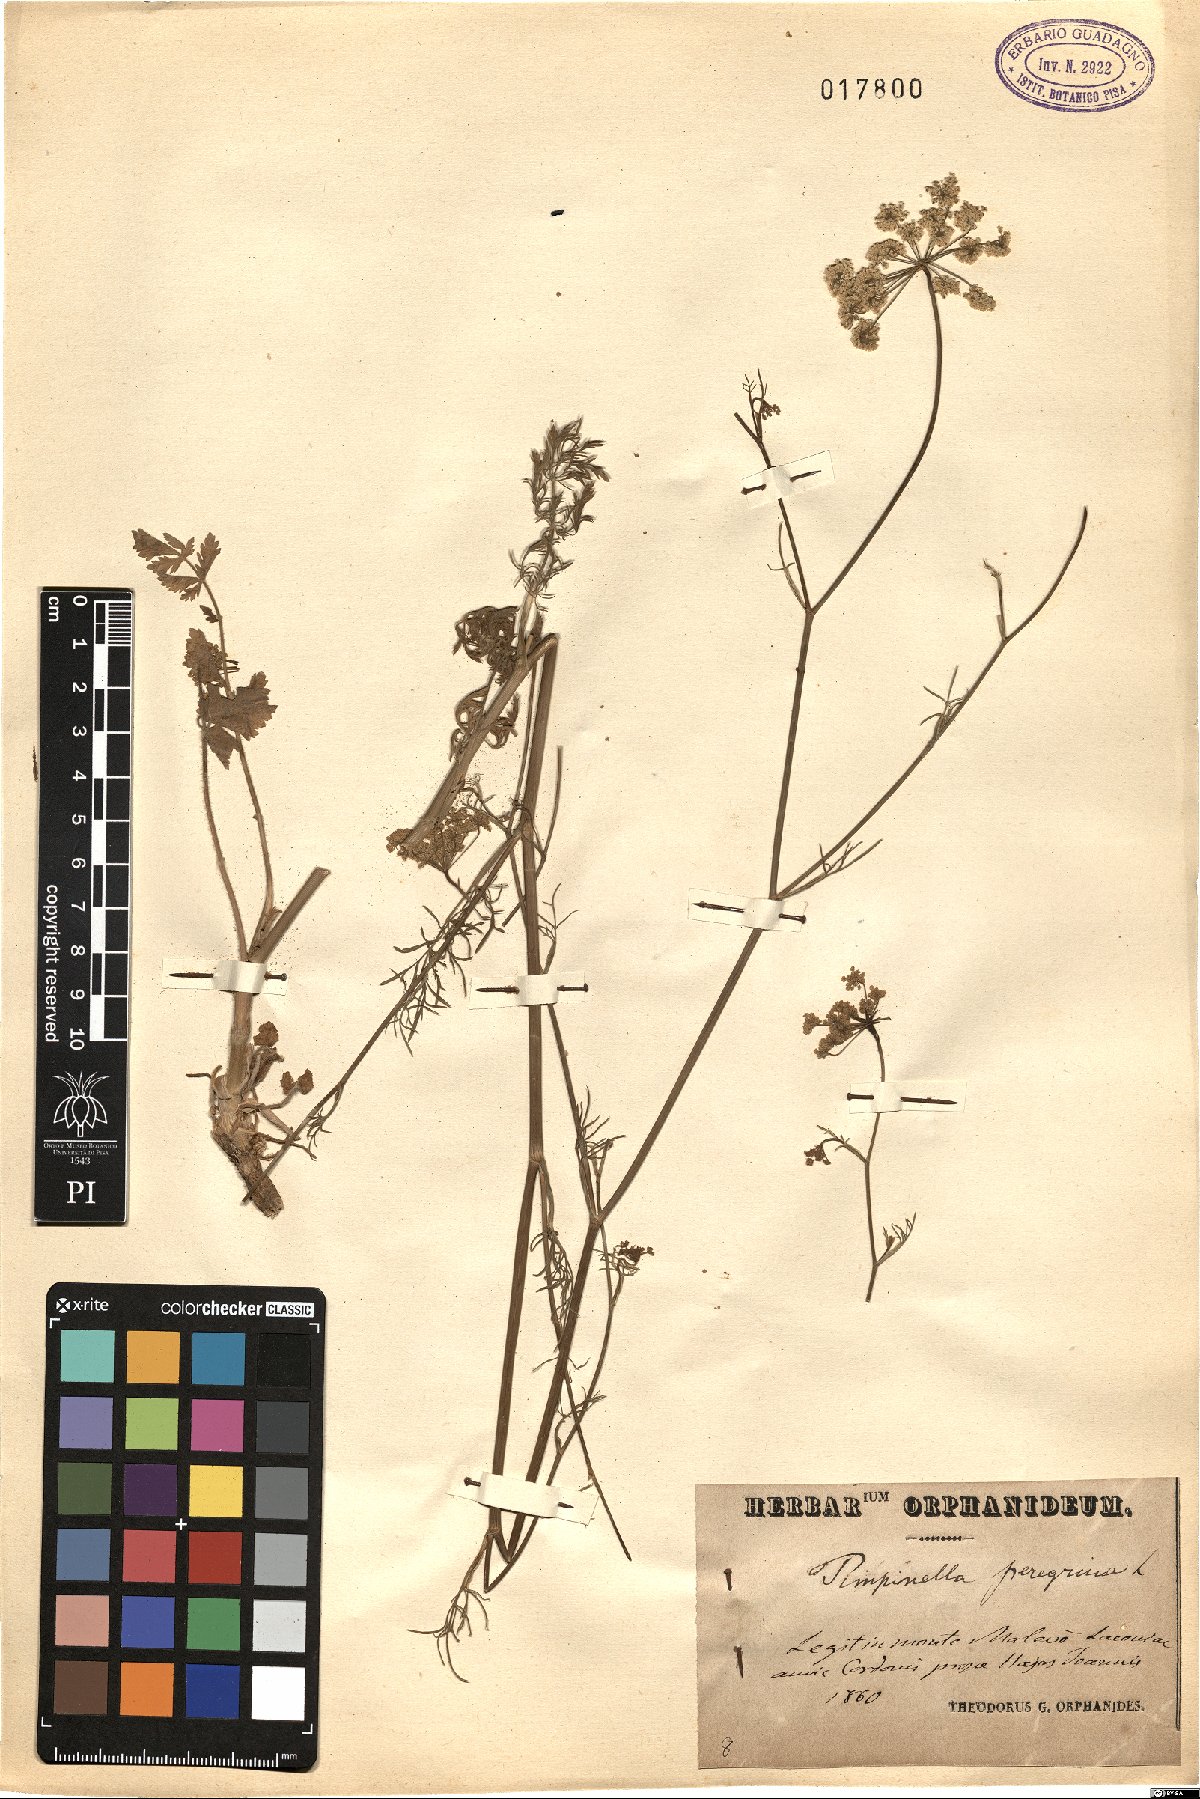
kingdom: Plantae
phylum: Tracheophyta
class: Magnoliopsida
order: Apiales
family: Apiaceae
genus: Pimpinella
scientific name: Pimpinella peregrina
